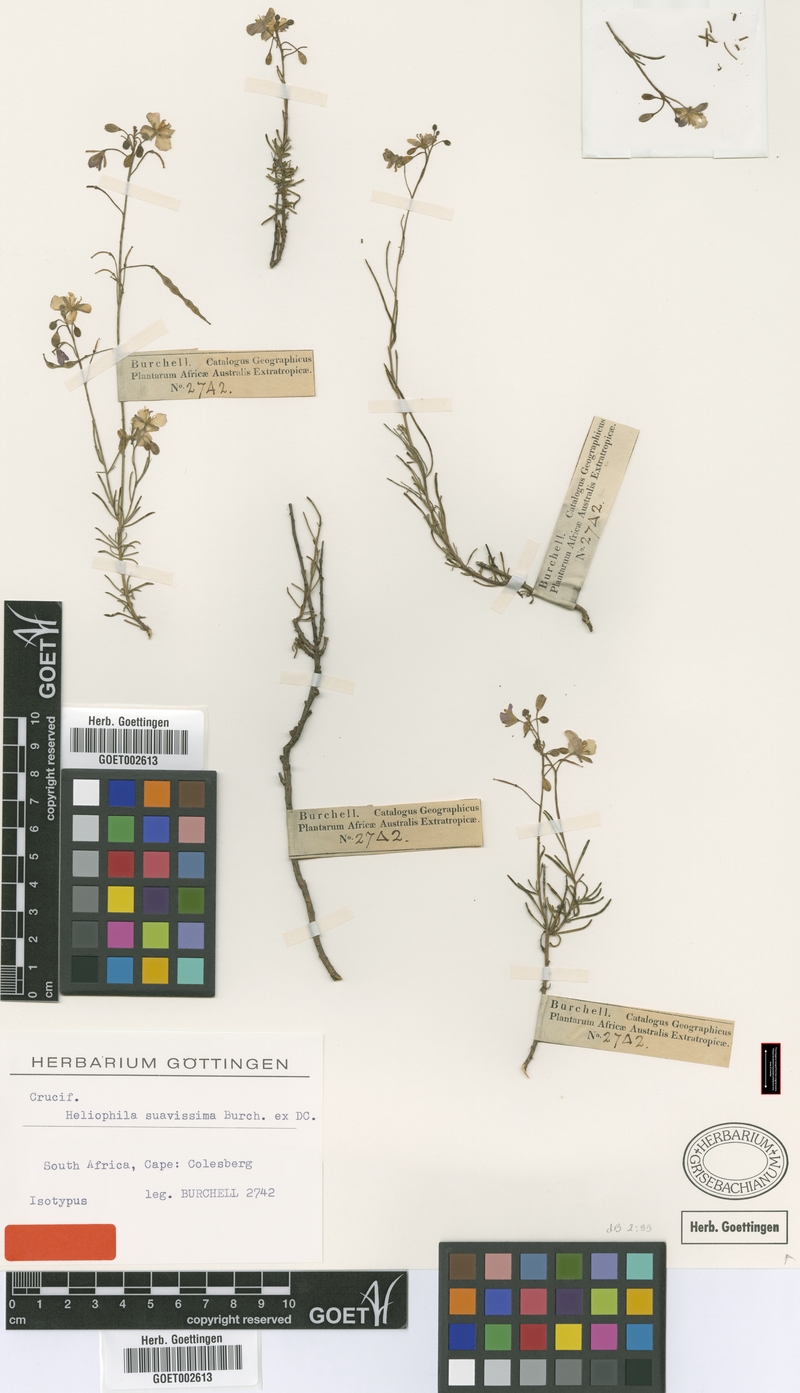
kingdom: Plantae
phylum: Tracheophyta
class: Magnoliopsida
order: Brassicales
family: Brassicaceae
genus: Heliophila
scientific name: Heliophila suavissima
